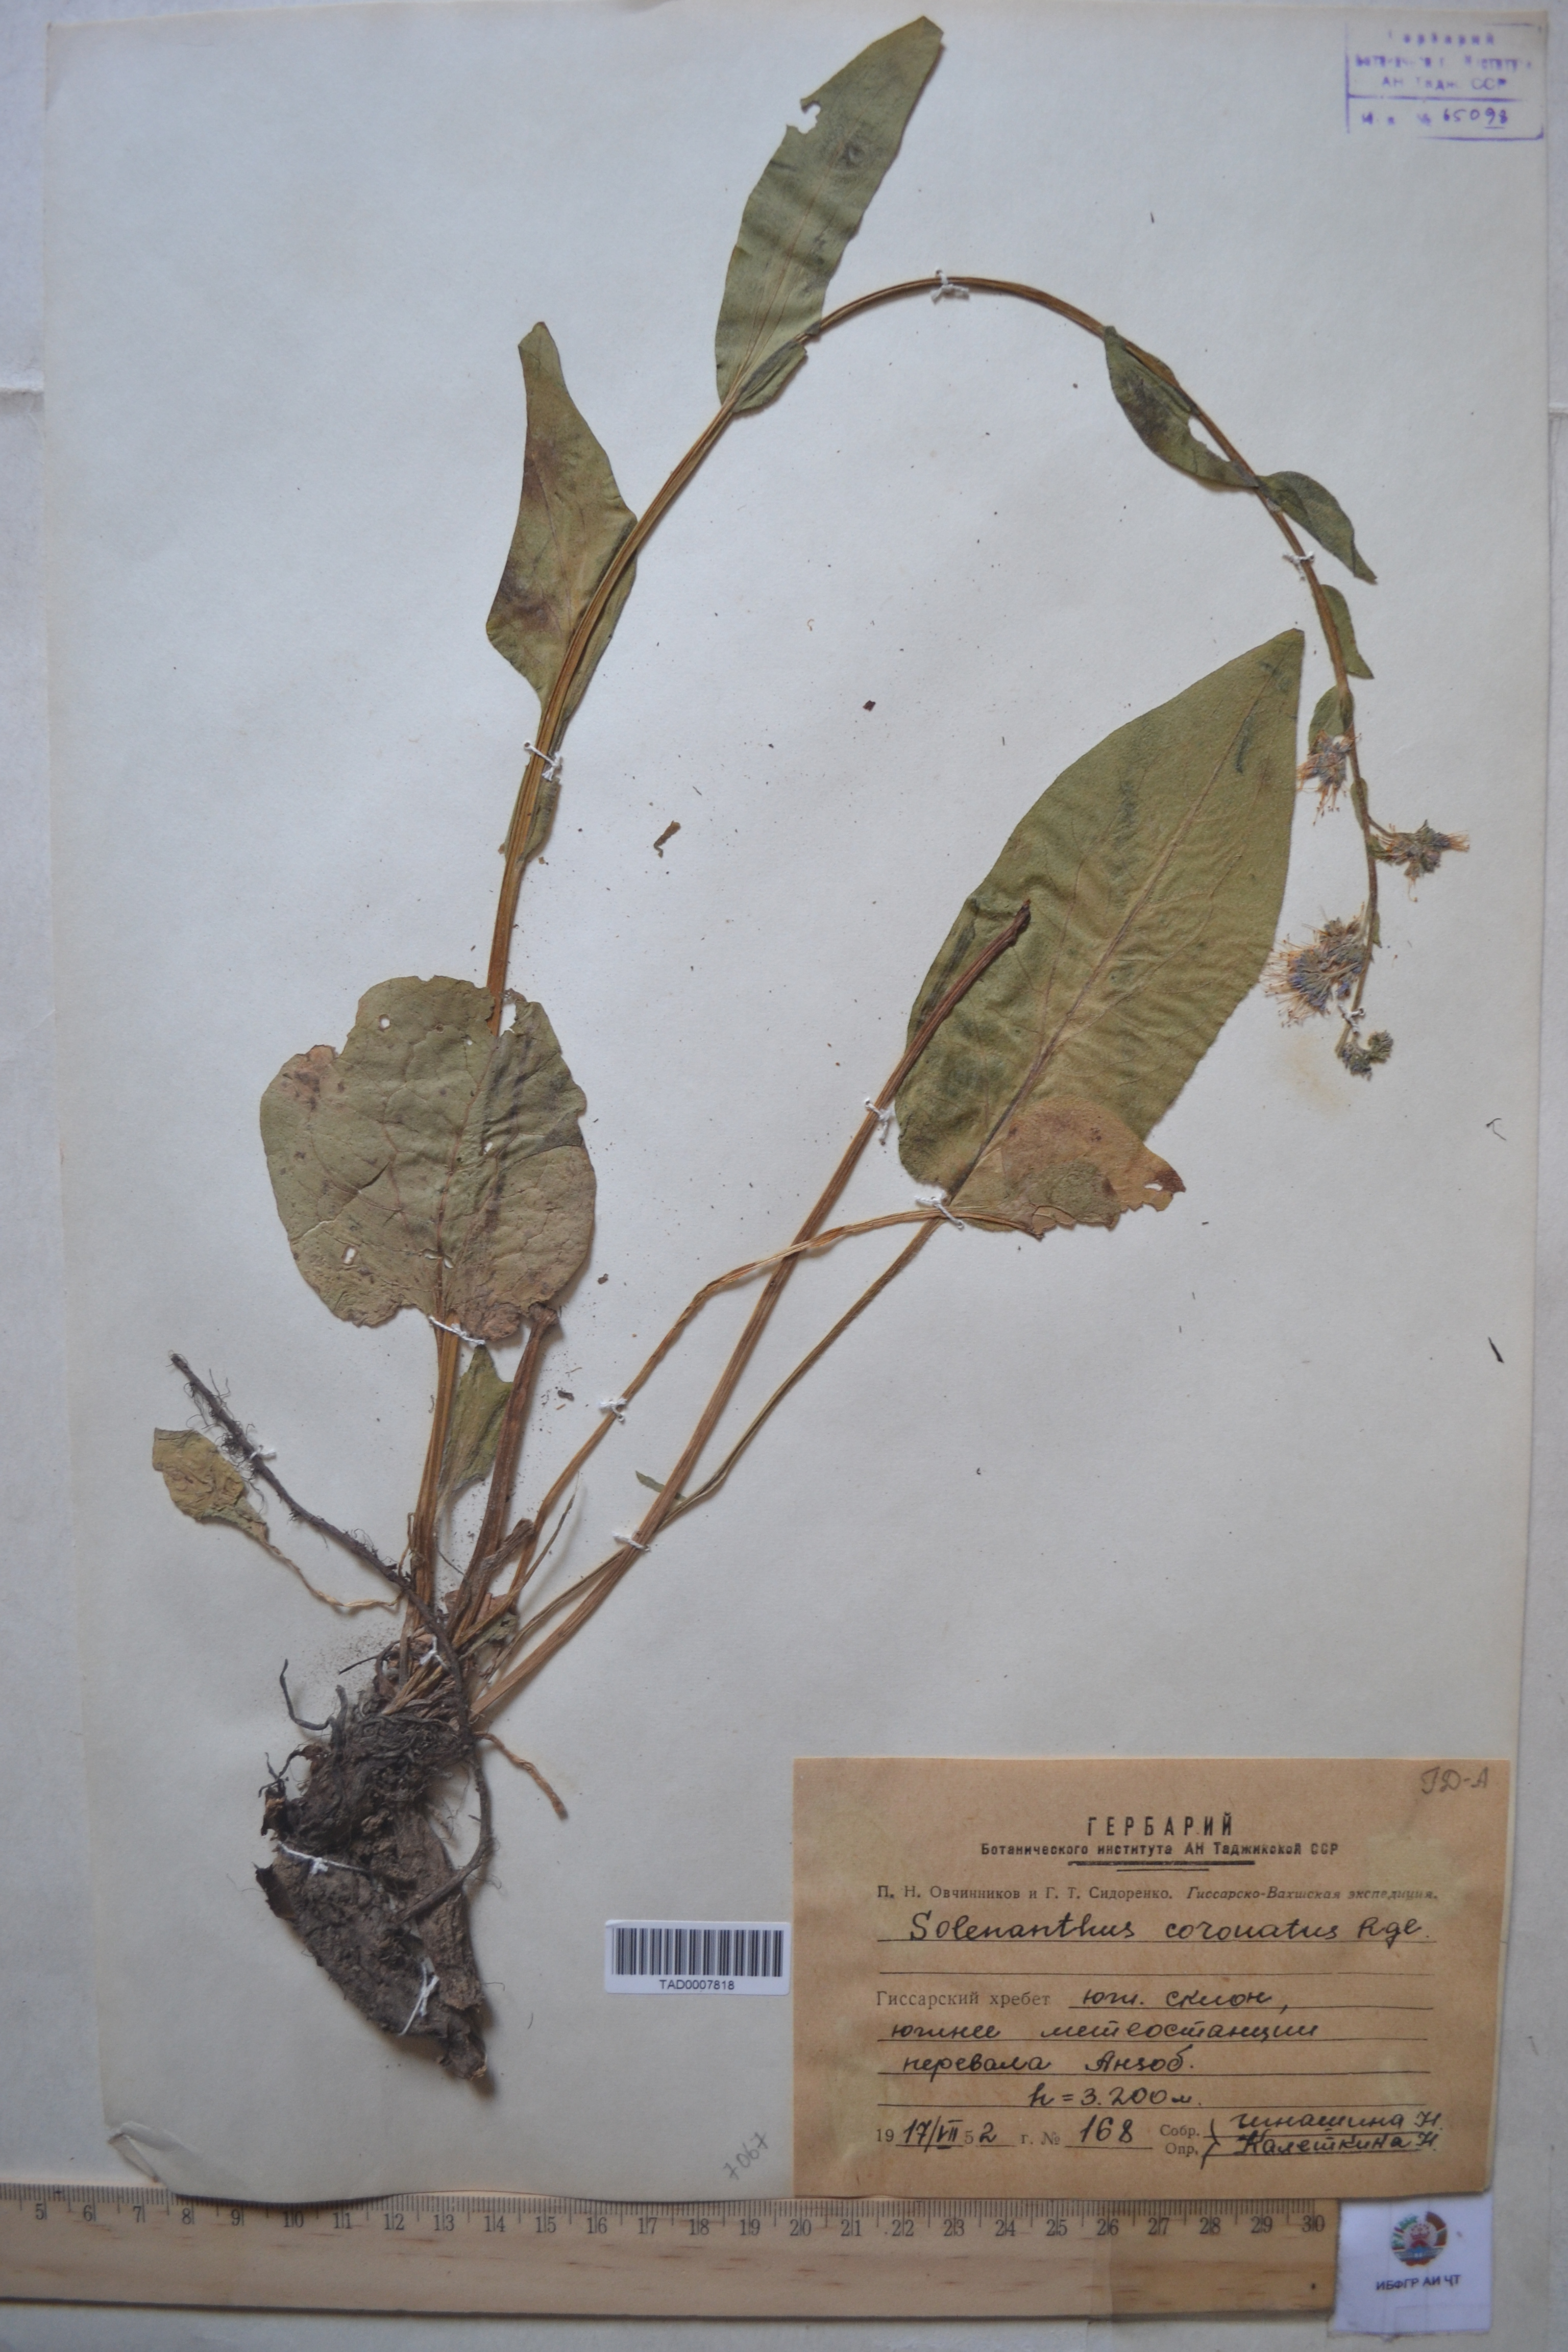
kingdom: Plantae
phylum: Tracheophyta
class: Magnoliopsida
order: Boraginales
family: Boraginaceae
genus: Solenanthus
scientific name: Solenanthus circinnatus
